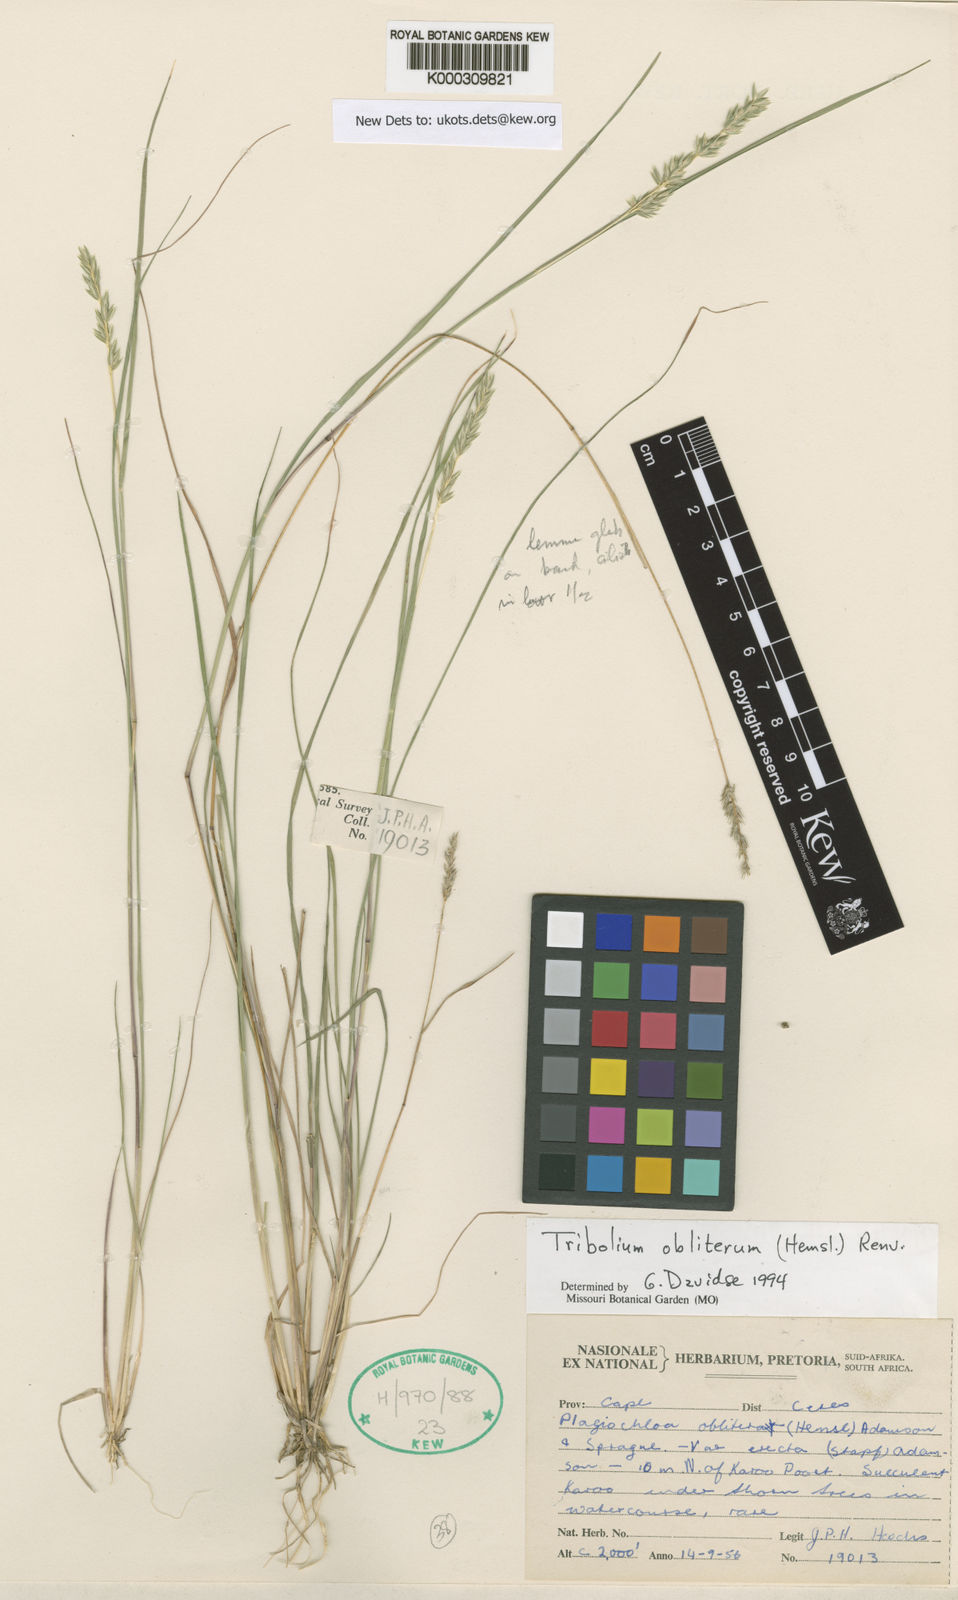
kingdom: Plantae
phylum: Tracheophyta
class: Liliopsida
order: Poales
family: Poaceae
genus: Tribolium
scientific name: Tribolium obliterum
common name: Capetown grass
